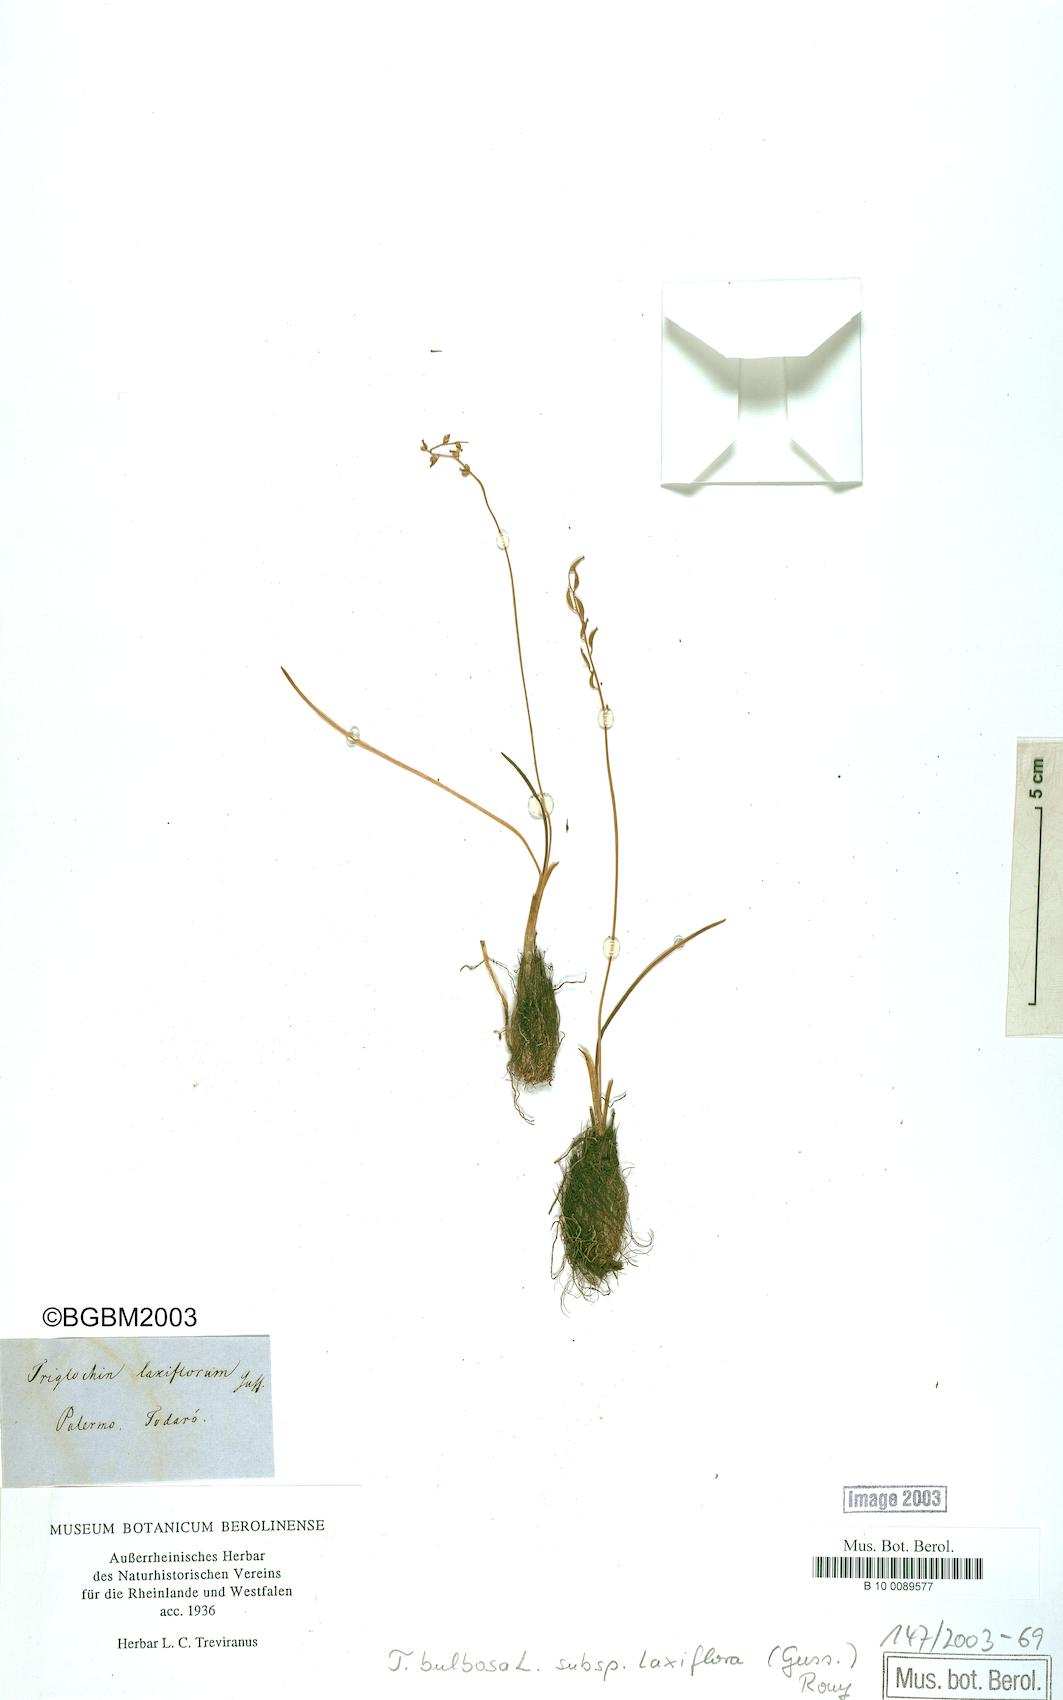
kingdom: Plantae
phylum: Tracheophyta
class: Liliopsida
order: Alismatales
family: Juncaginaceae
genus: Triglochin
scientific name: Triglochin laxiflora
